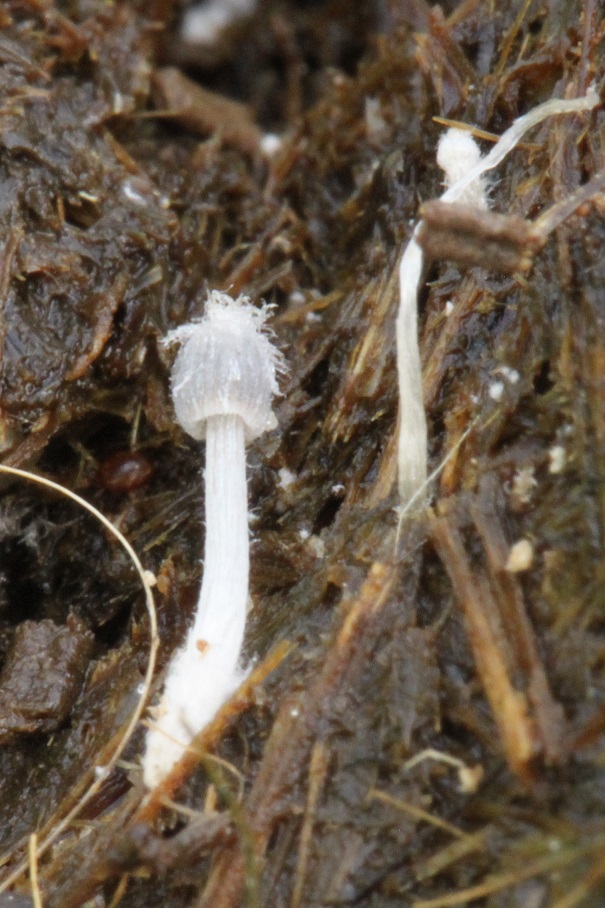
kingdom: Fungi
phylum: Basidiomycota
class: Agaricomycetes
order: Agaricales
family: Psathyrellaceae
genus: Coprinopsis
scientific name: Coprinopsis radiata
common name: lille gødnings-blækhat
